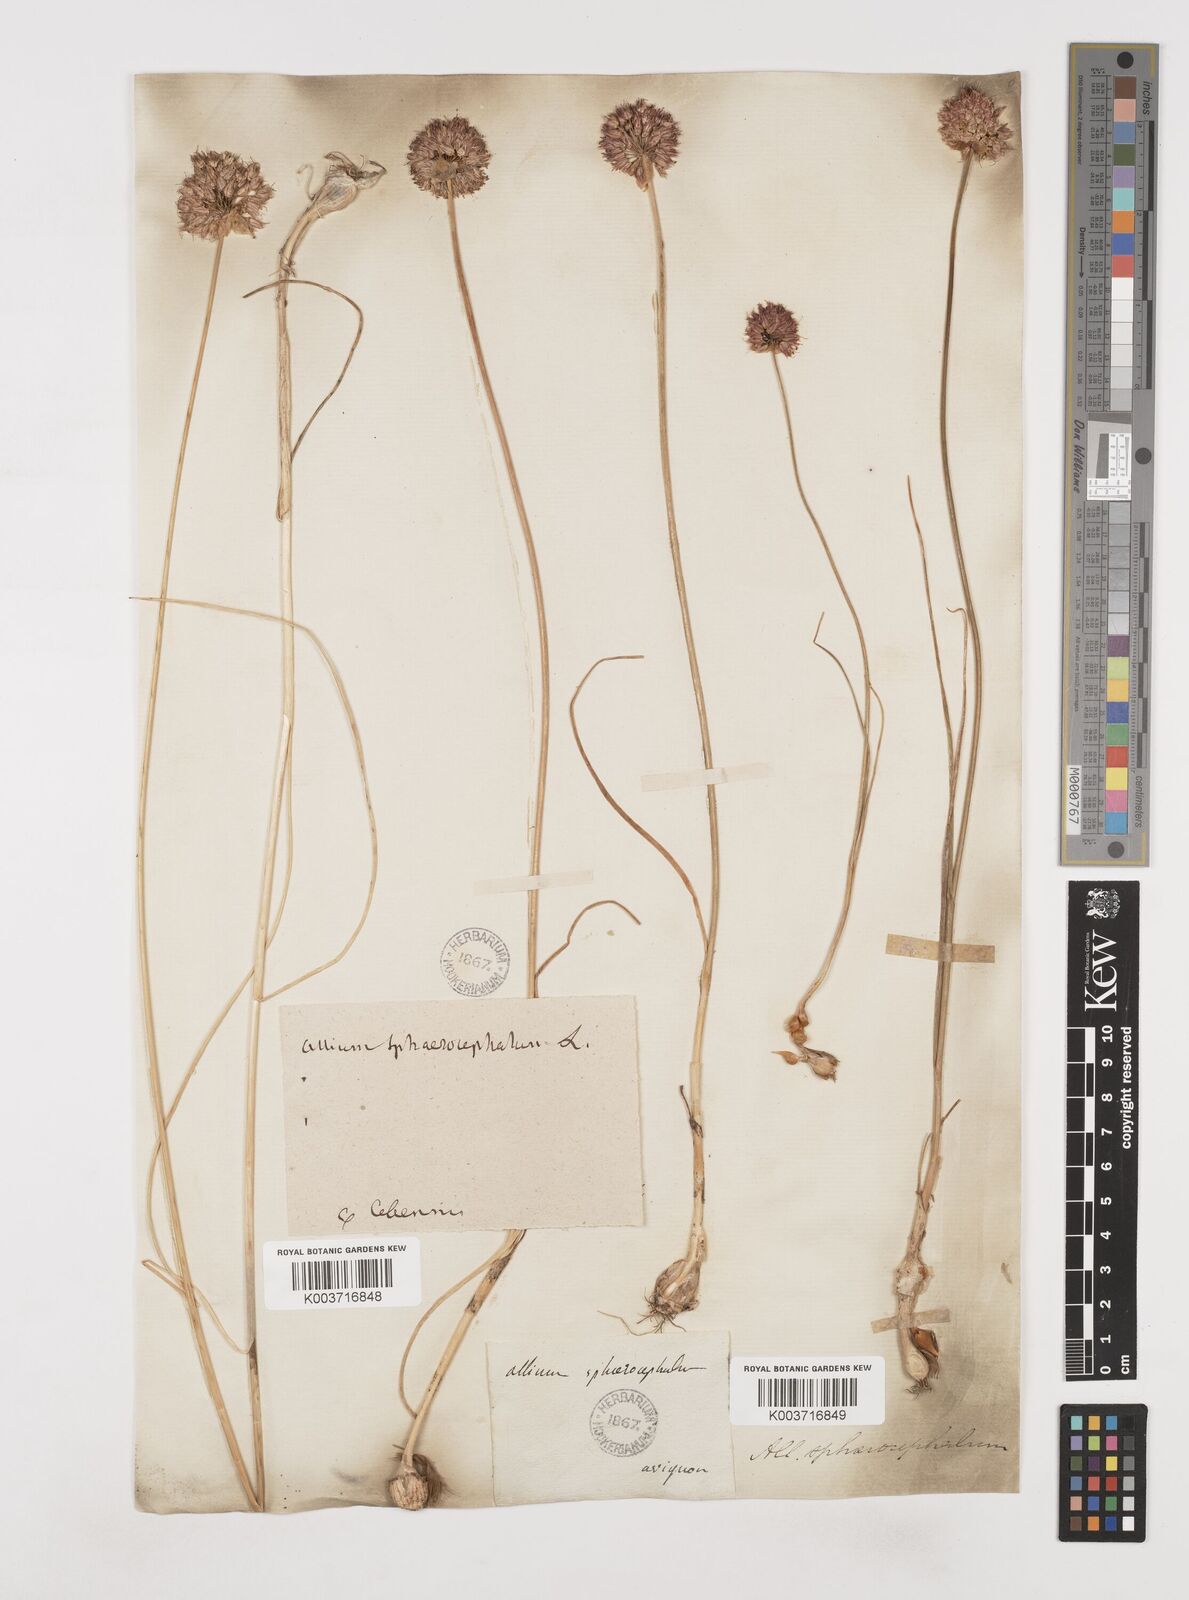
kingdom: Plantae
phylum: Tracheophyta
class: Liliopsida
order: Asparagales
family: Amaryllidaceae
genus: Allium
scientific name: Allium sphaerocephalon
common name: Round-headed leek
